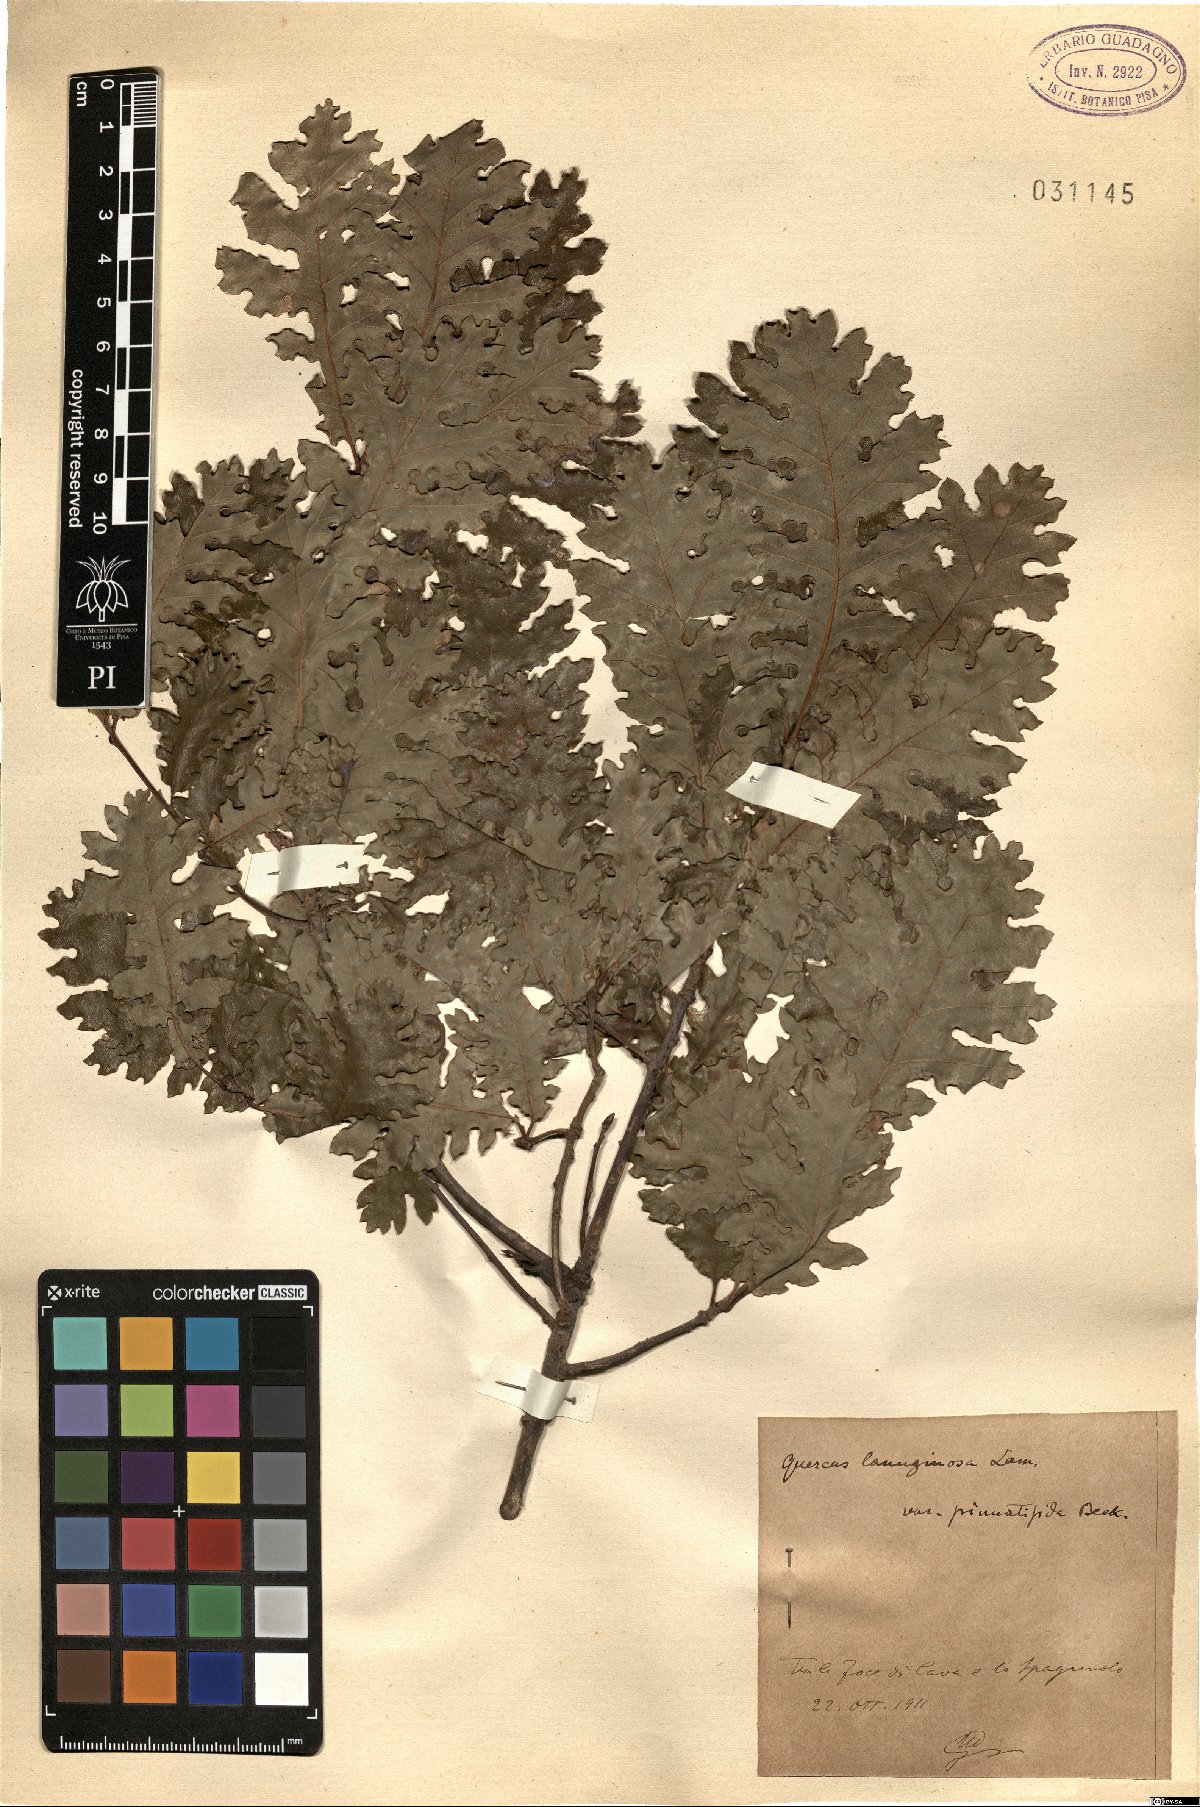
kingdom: Plantae
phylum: Tracheophyta
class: Magnoliopsida
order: Fagales
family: Fagaceae
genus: Quercus
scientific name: Quercus
